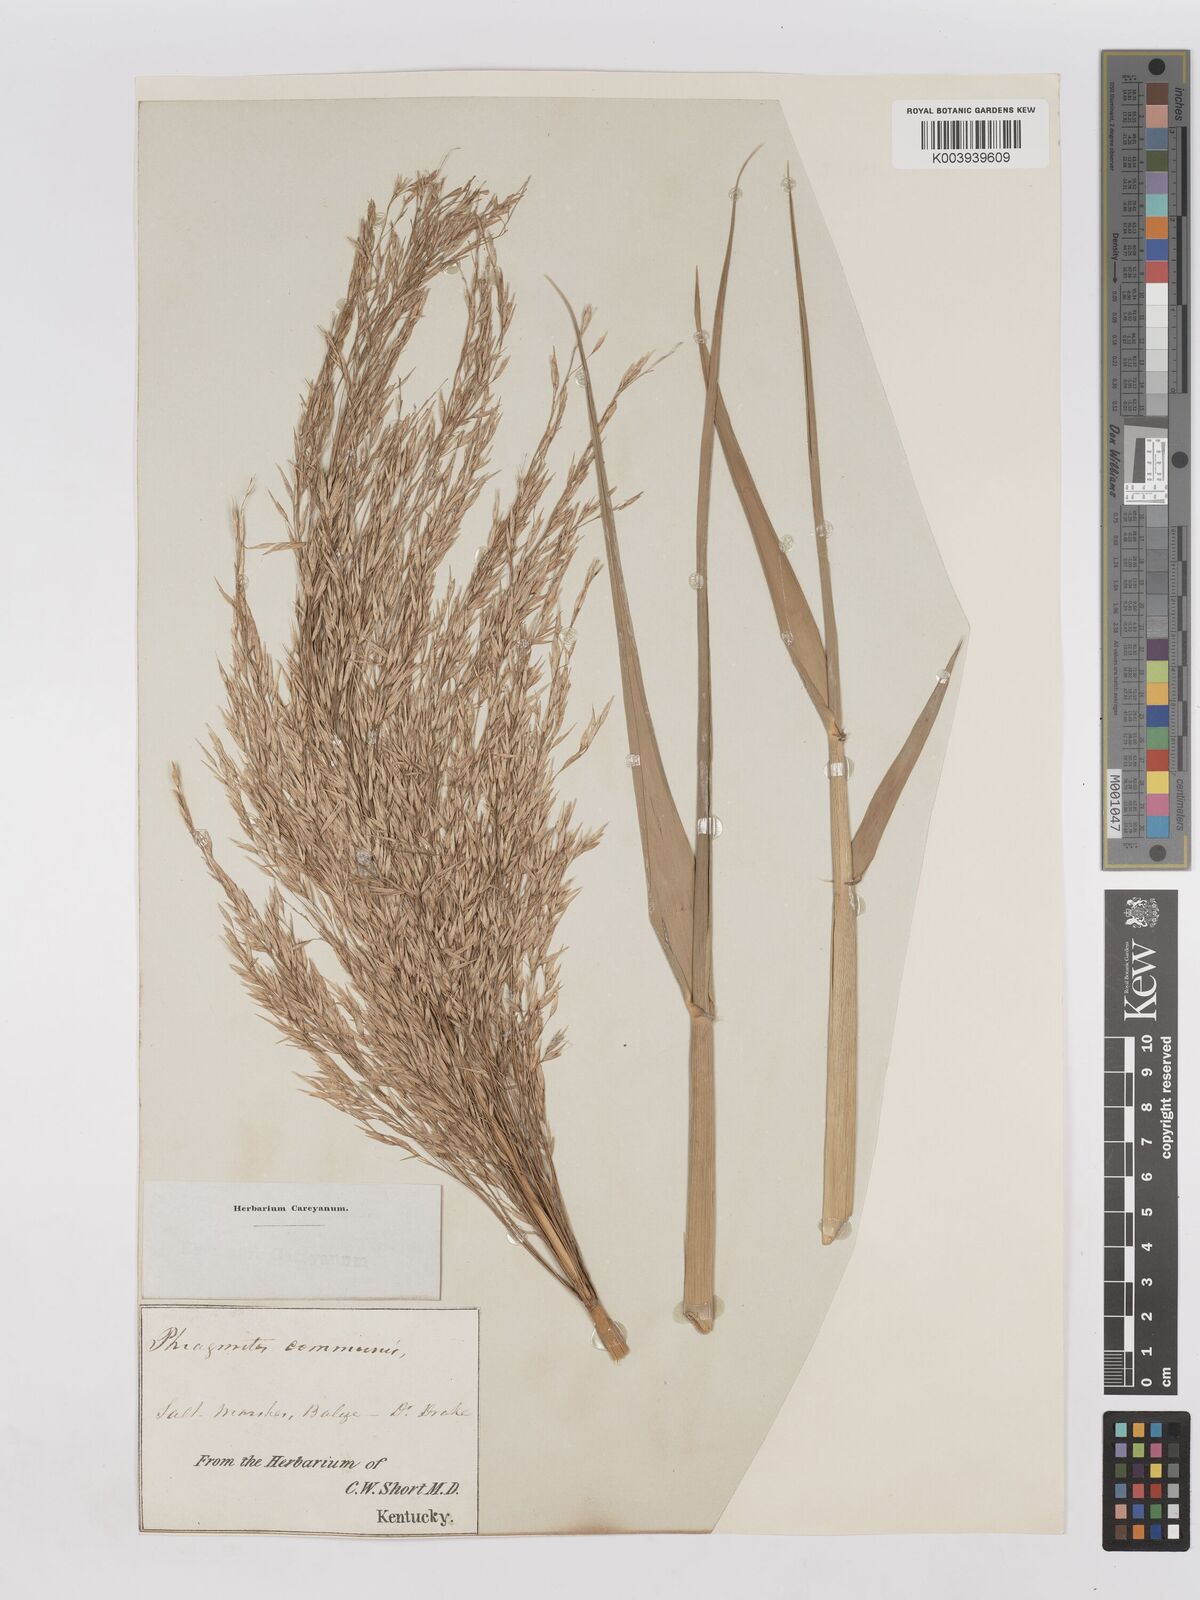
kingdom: Plantae
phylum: Tracheophyta
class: Liliopsida
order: Poales
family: Poaceae
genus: Phragmites
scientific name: Phragmites australis
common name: Common reed
